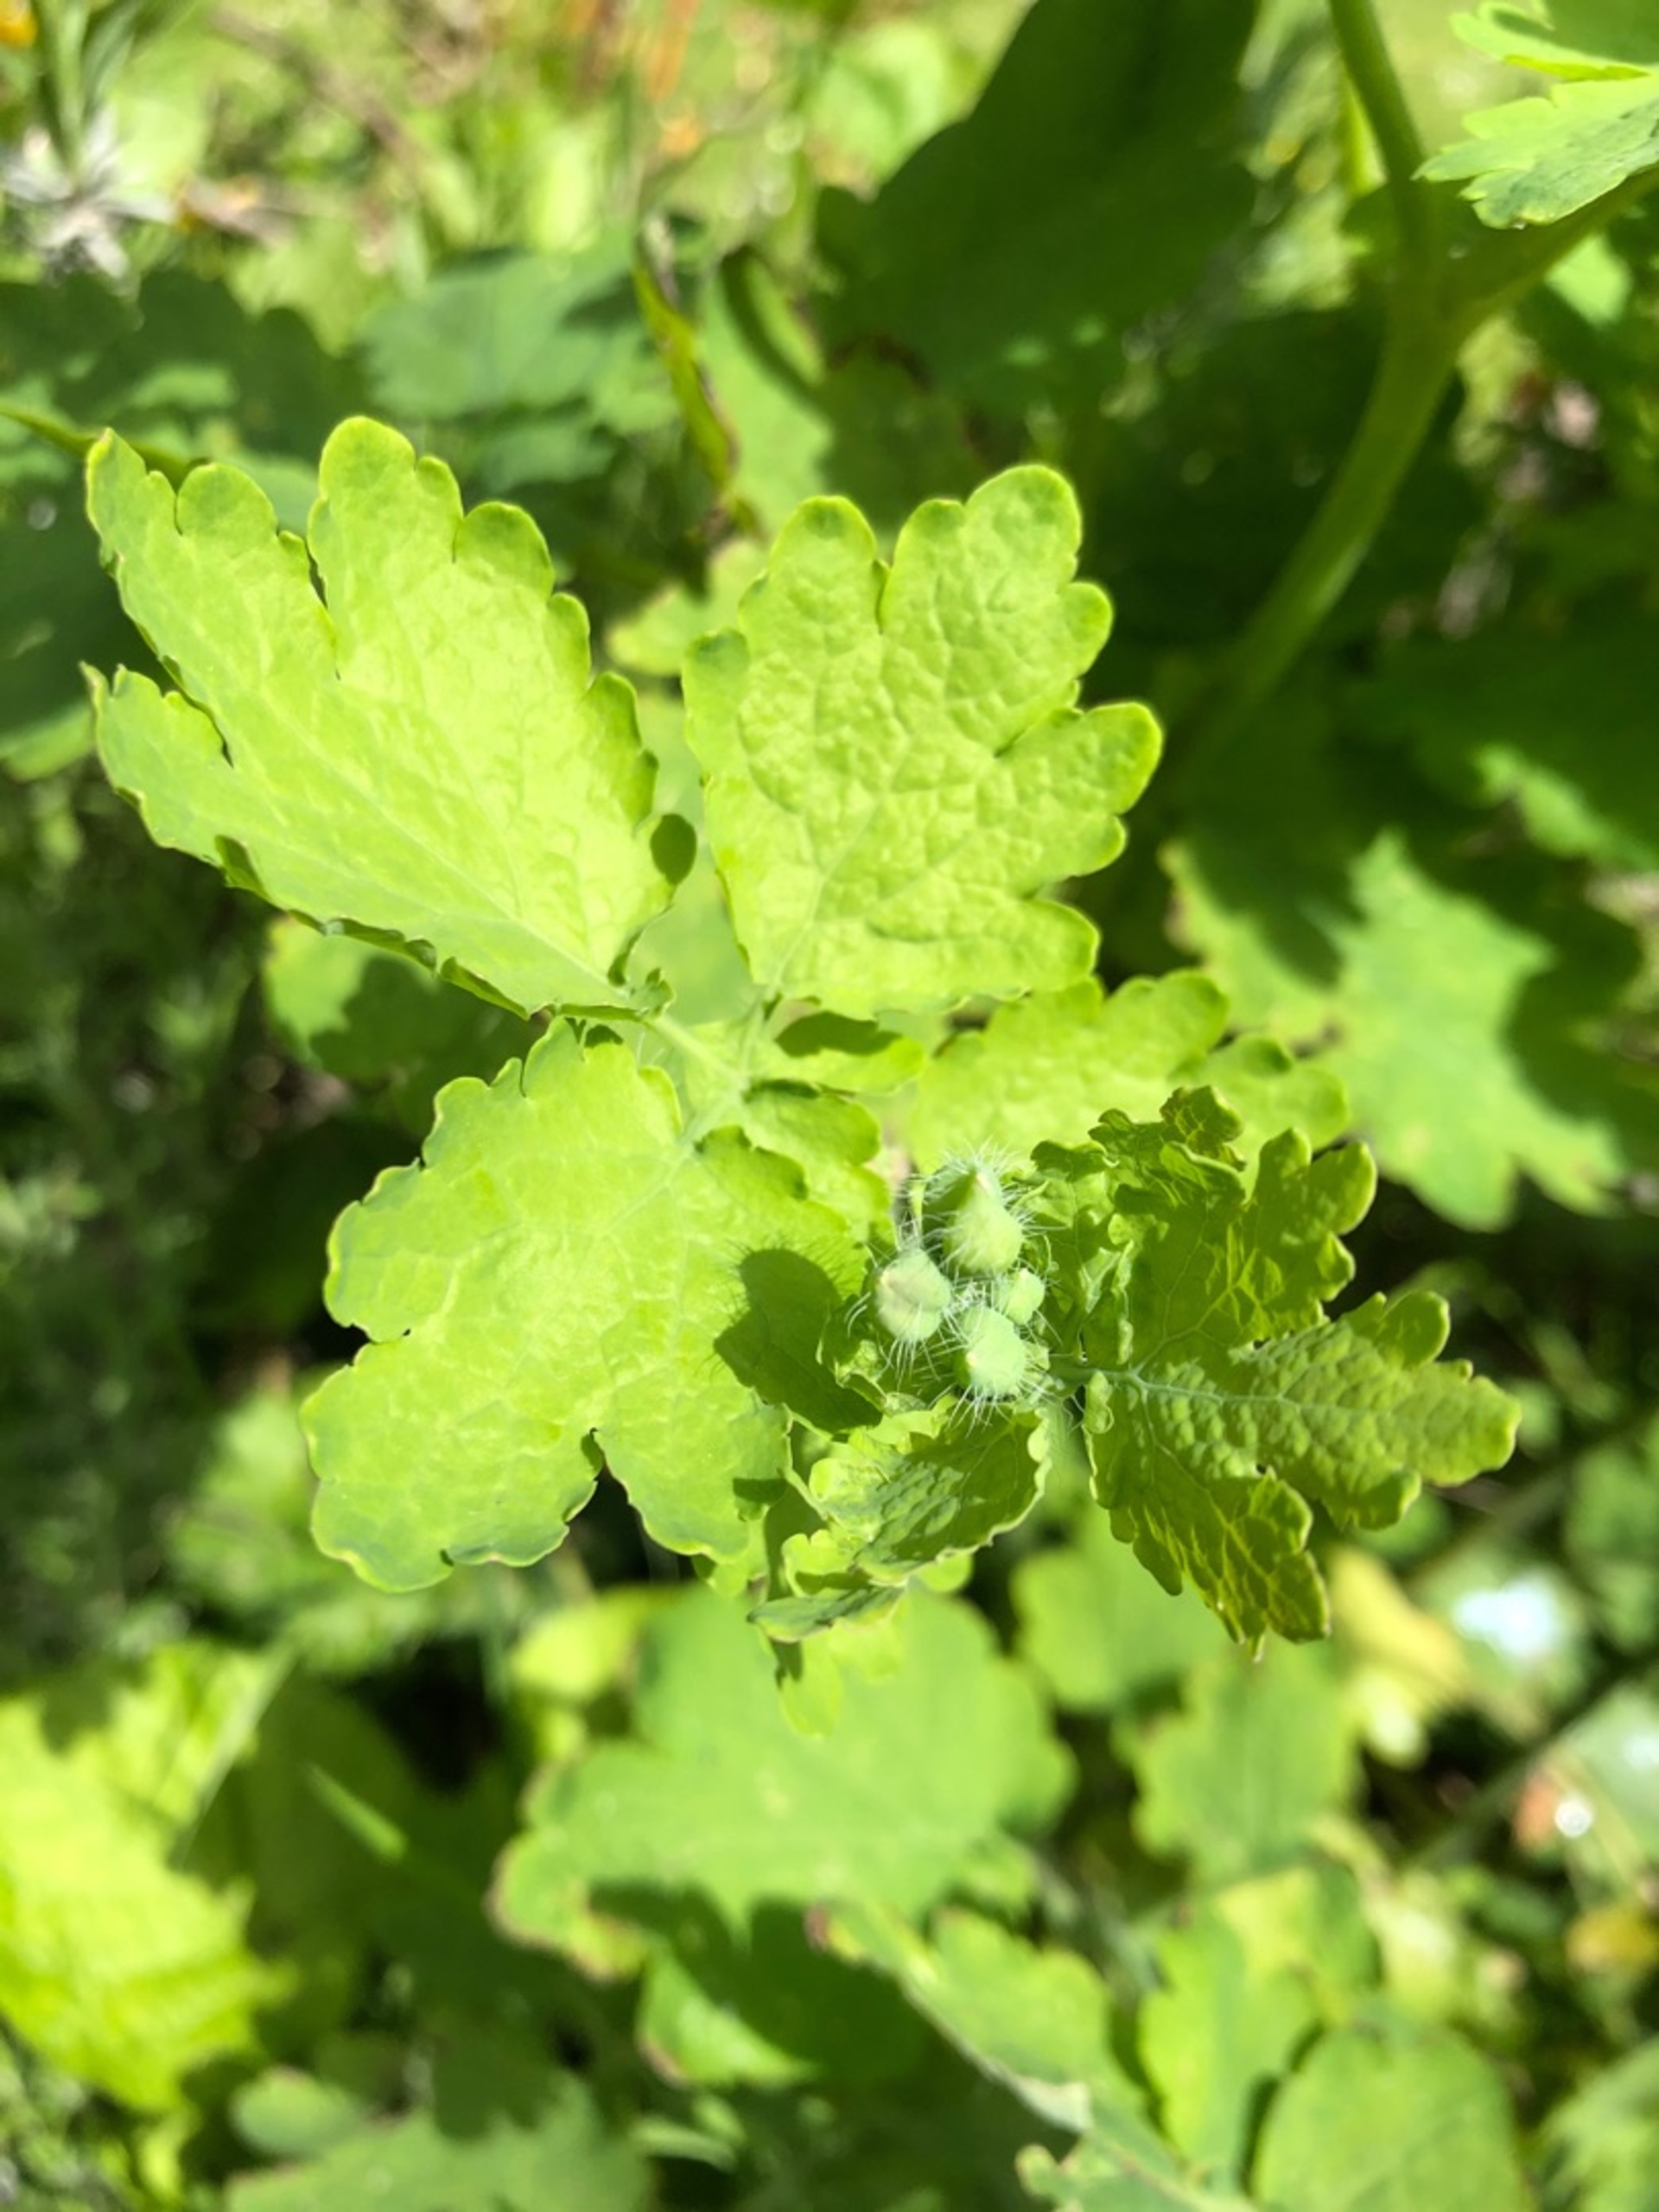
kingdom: Plantae
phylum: Tracheophyta
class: Magnoliopsida
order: Ranunculales
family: Papaveraceae
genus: Chelidonium
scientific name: Chelidonium majus
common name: Svaleurt
